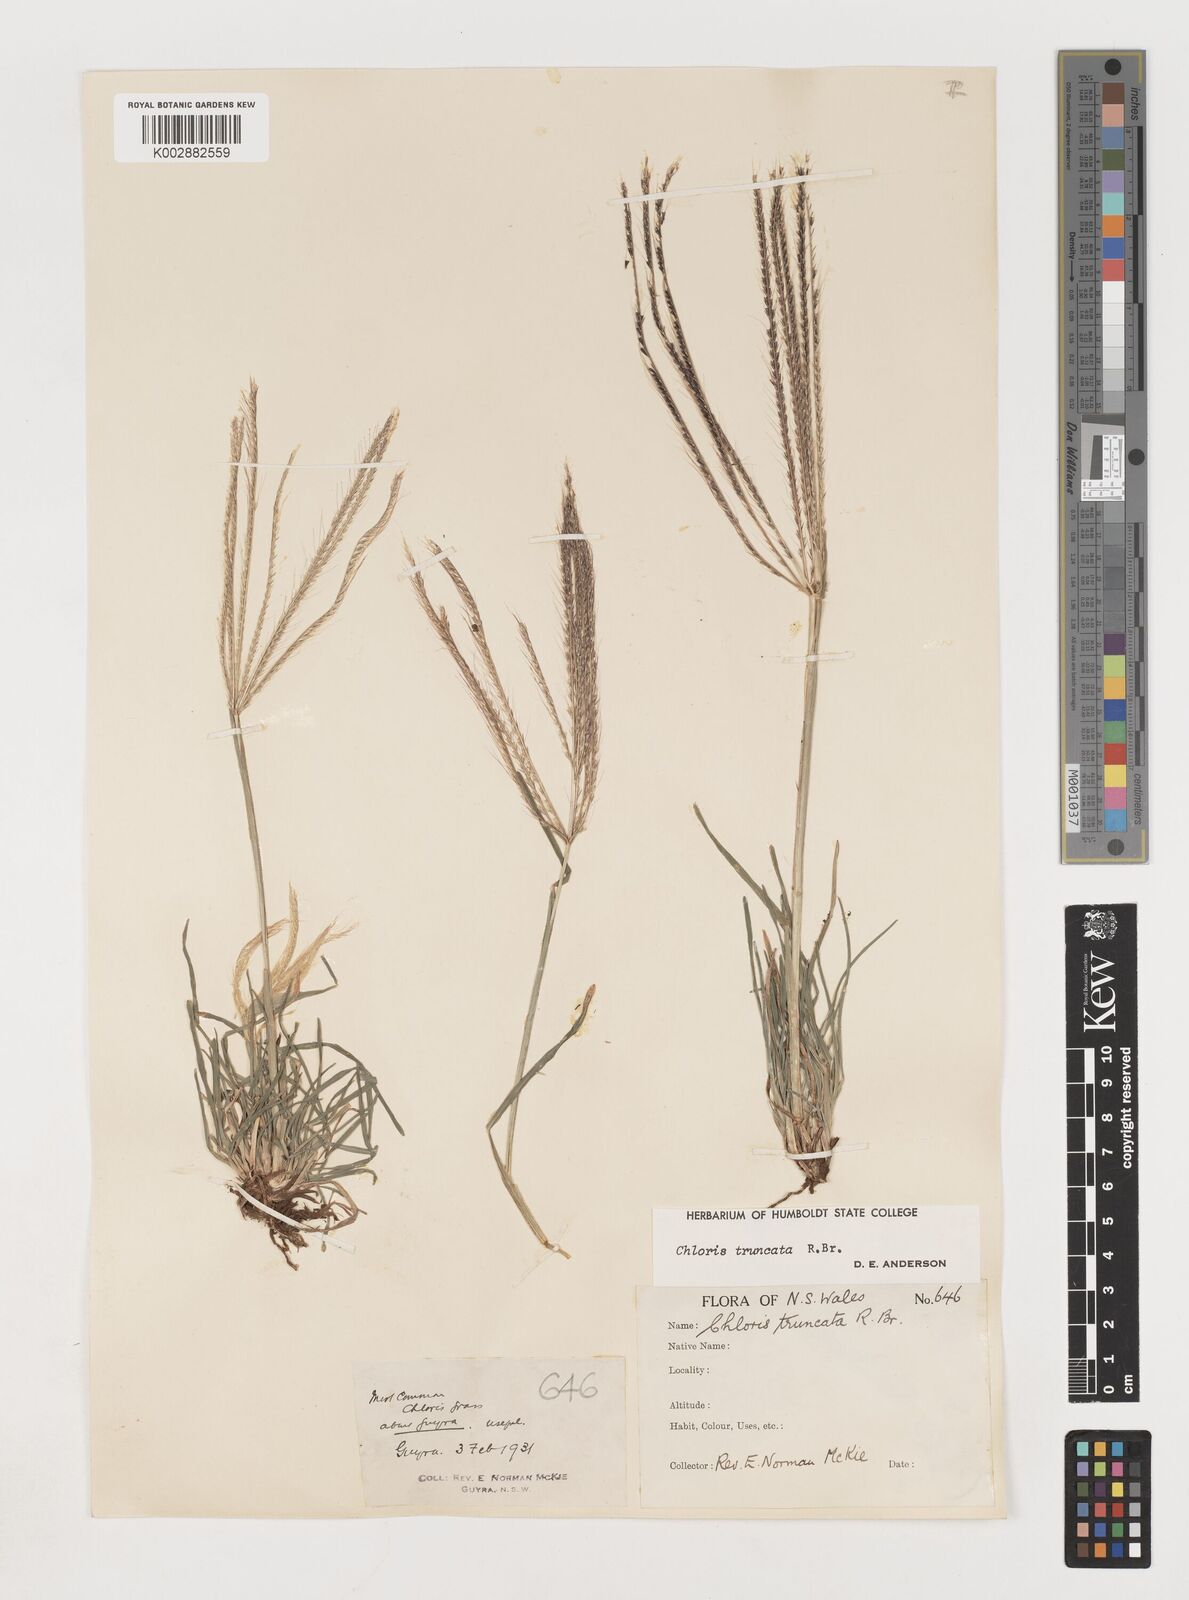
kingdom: Plantae
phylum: Tracheophyta
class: Liliopsida
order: Poales
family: Poaceae
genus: Chloris
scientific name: Chloris truncata
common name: Windmill-grass
